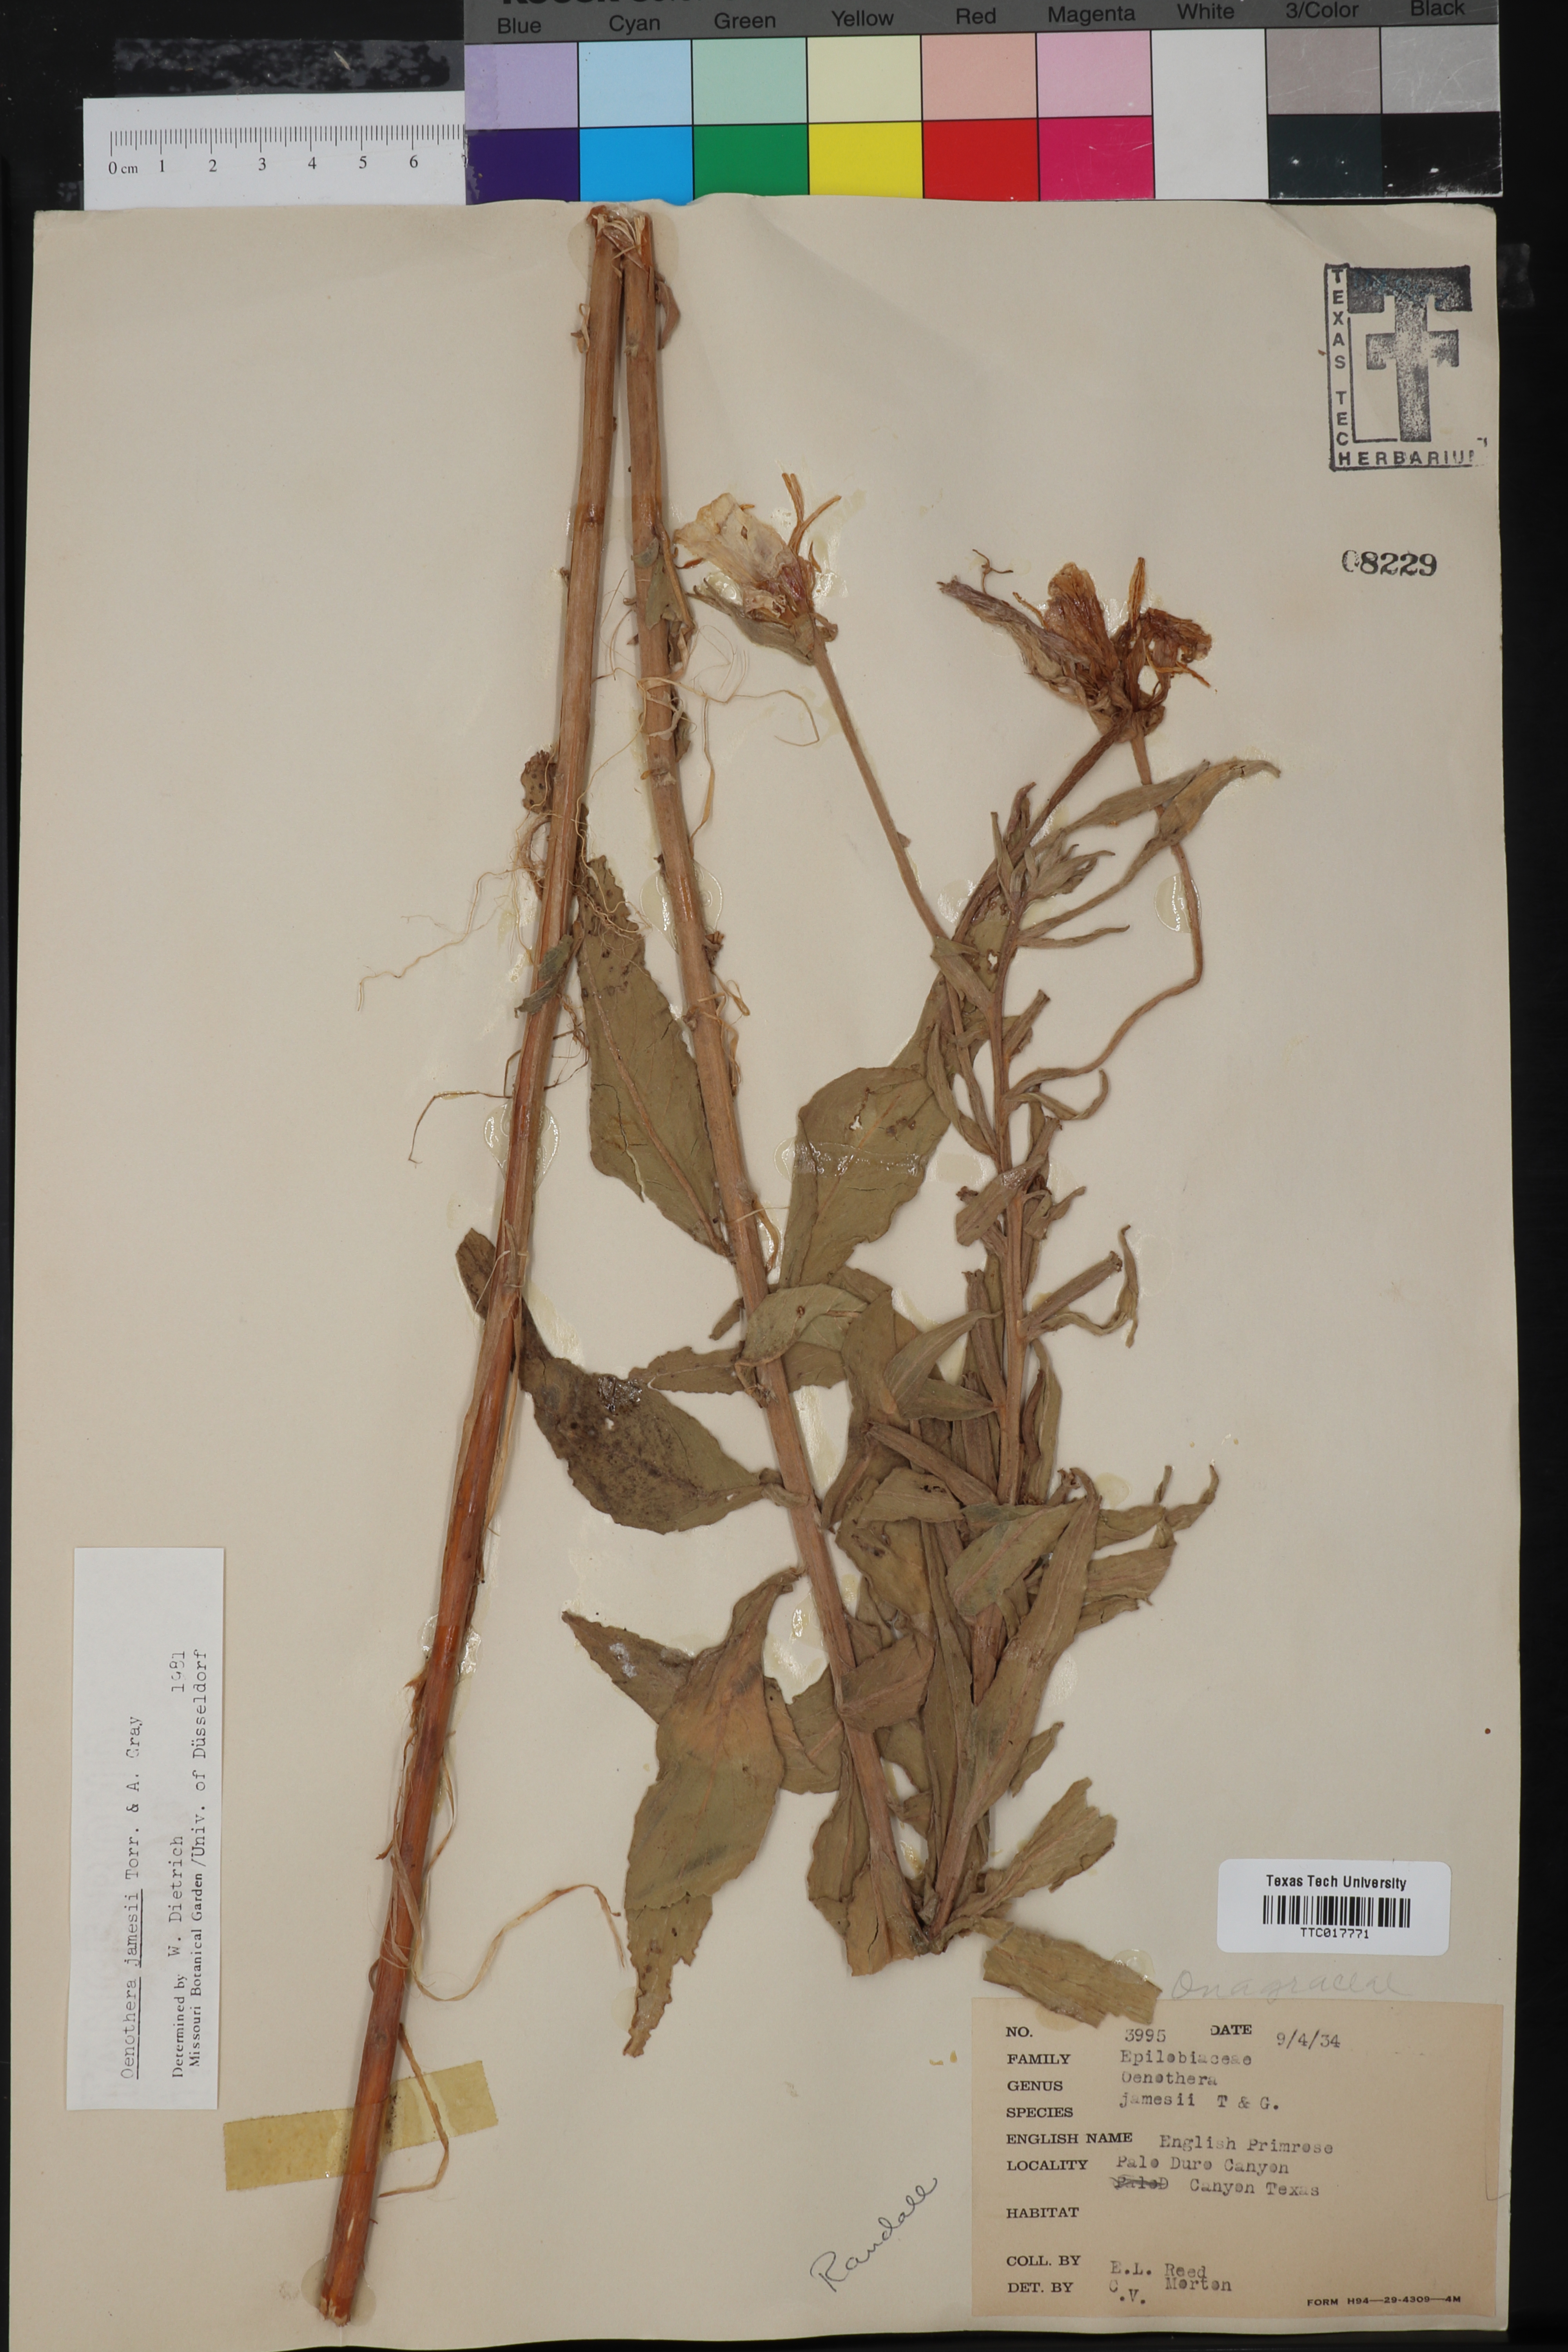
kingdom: Plantae
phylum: Tracheophyta
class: Magnoliopsida
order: Myrtales
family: Onagraceae
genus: Oenothera
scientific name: Oenothera jamesii
